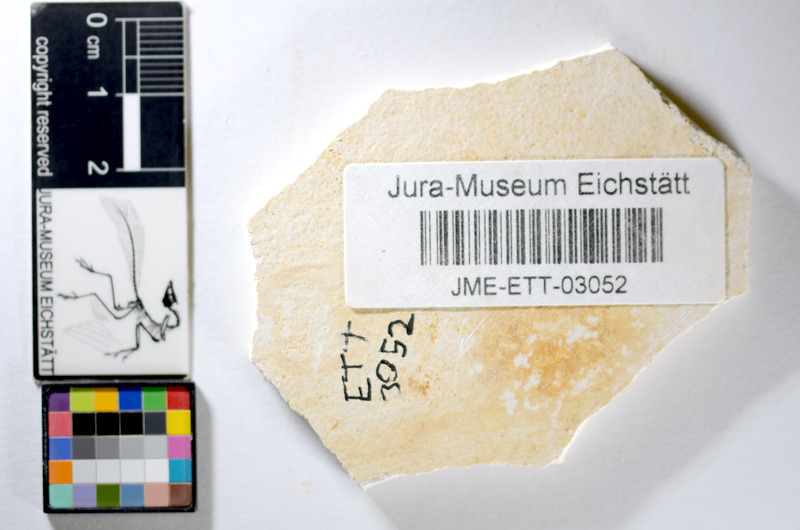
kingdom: Animalia
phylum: Chordata
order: Salmoniformes
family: Orthogonikleithridae
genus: Orthogonikleithrus
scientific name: Orthogonikleithrus hoelli
